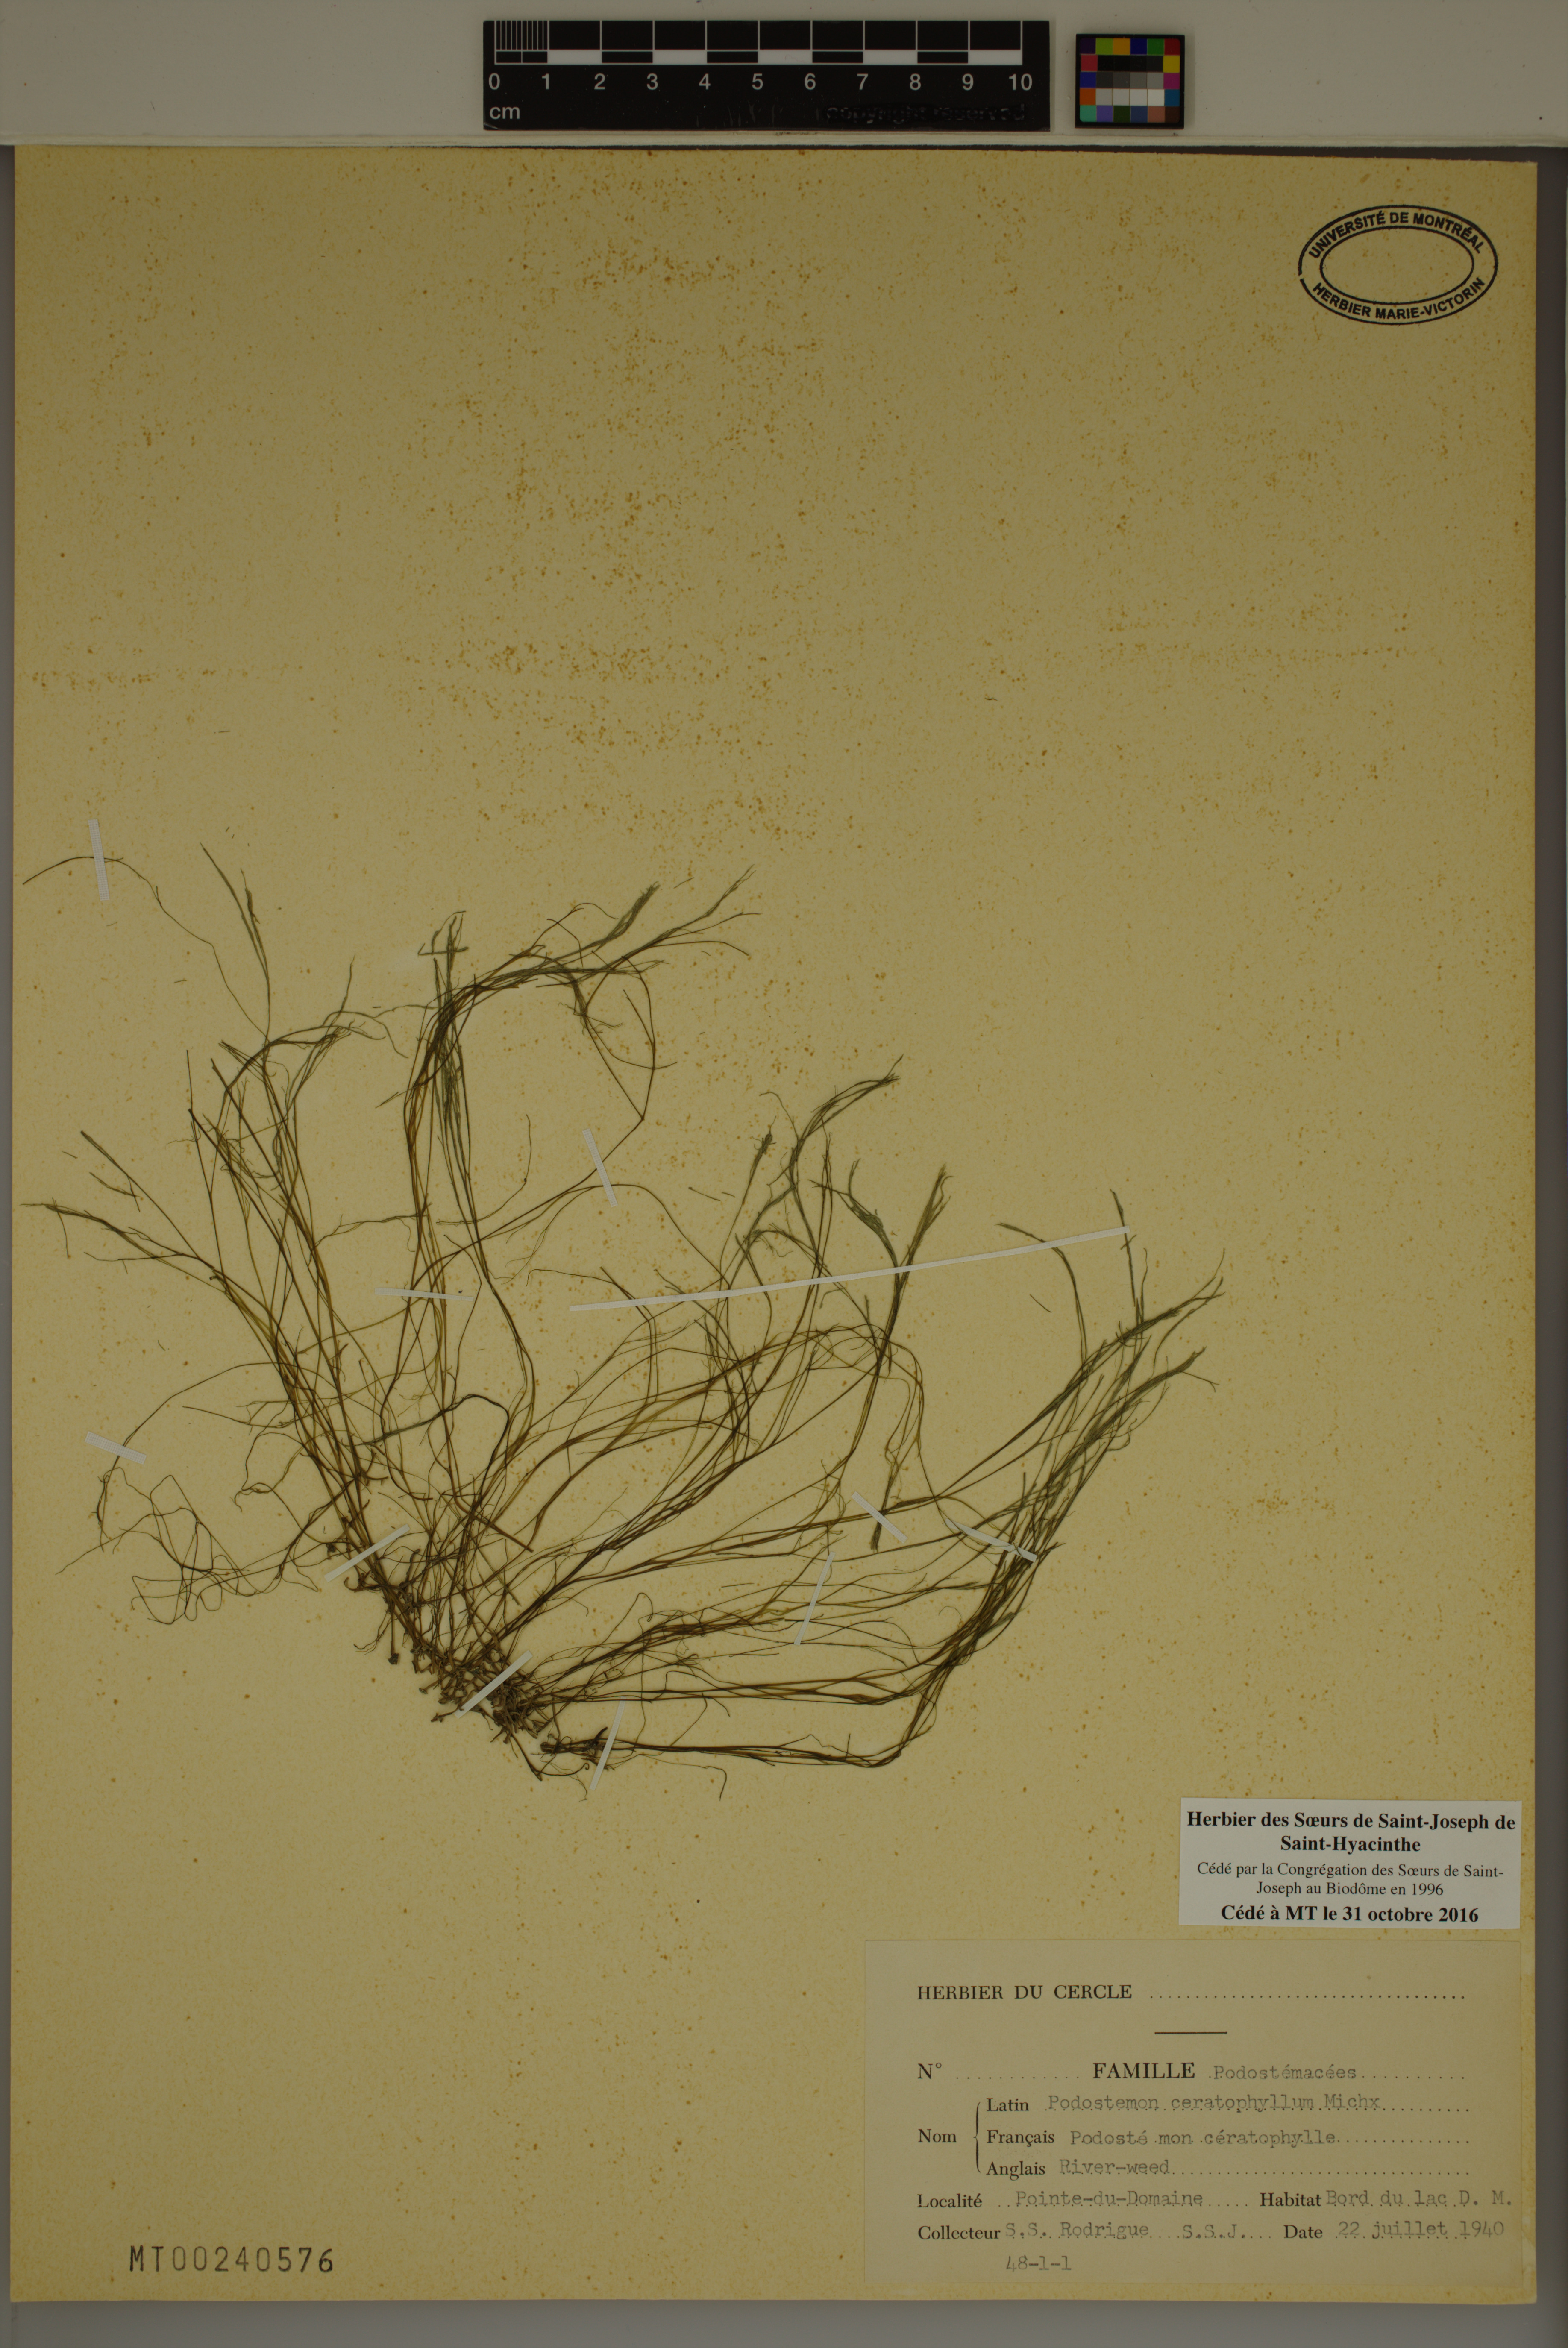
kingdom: Plantae
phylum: Tracheophyta
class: Magnoliopsida
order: Malpighiales
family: Podostemaceae
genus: Podostemum
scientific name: Podostemum ceratophyllum
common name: Horn-leaved riverweed
